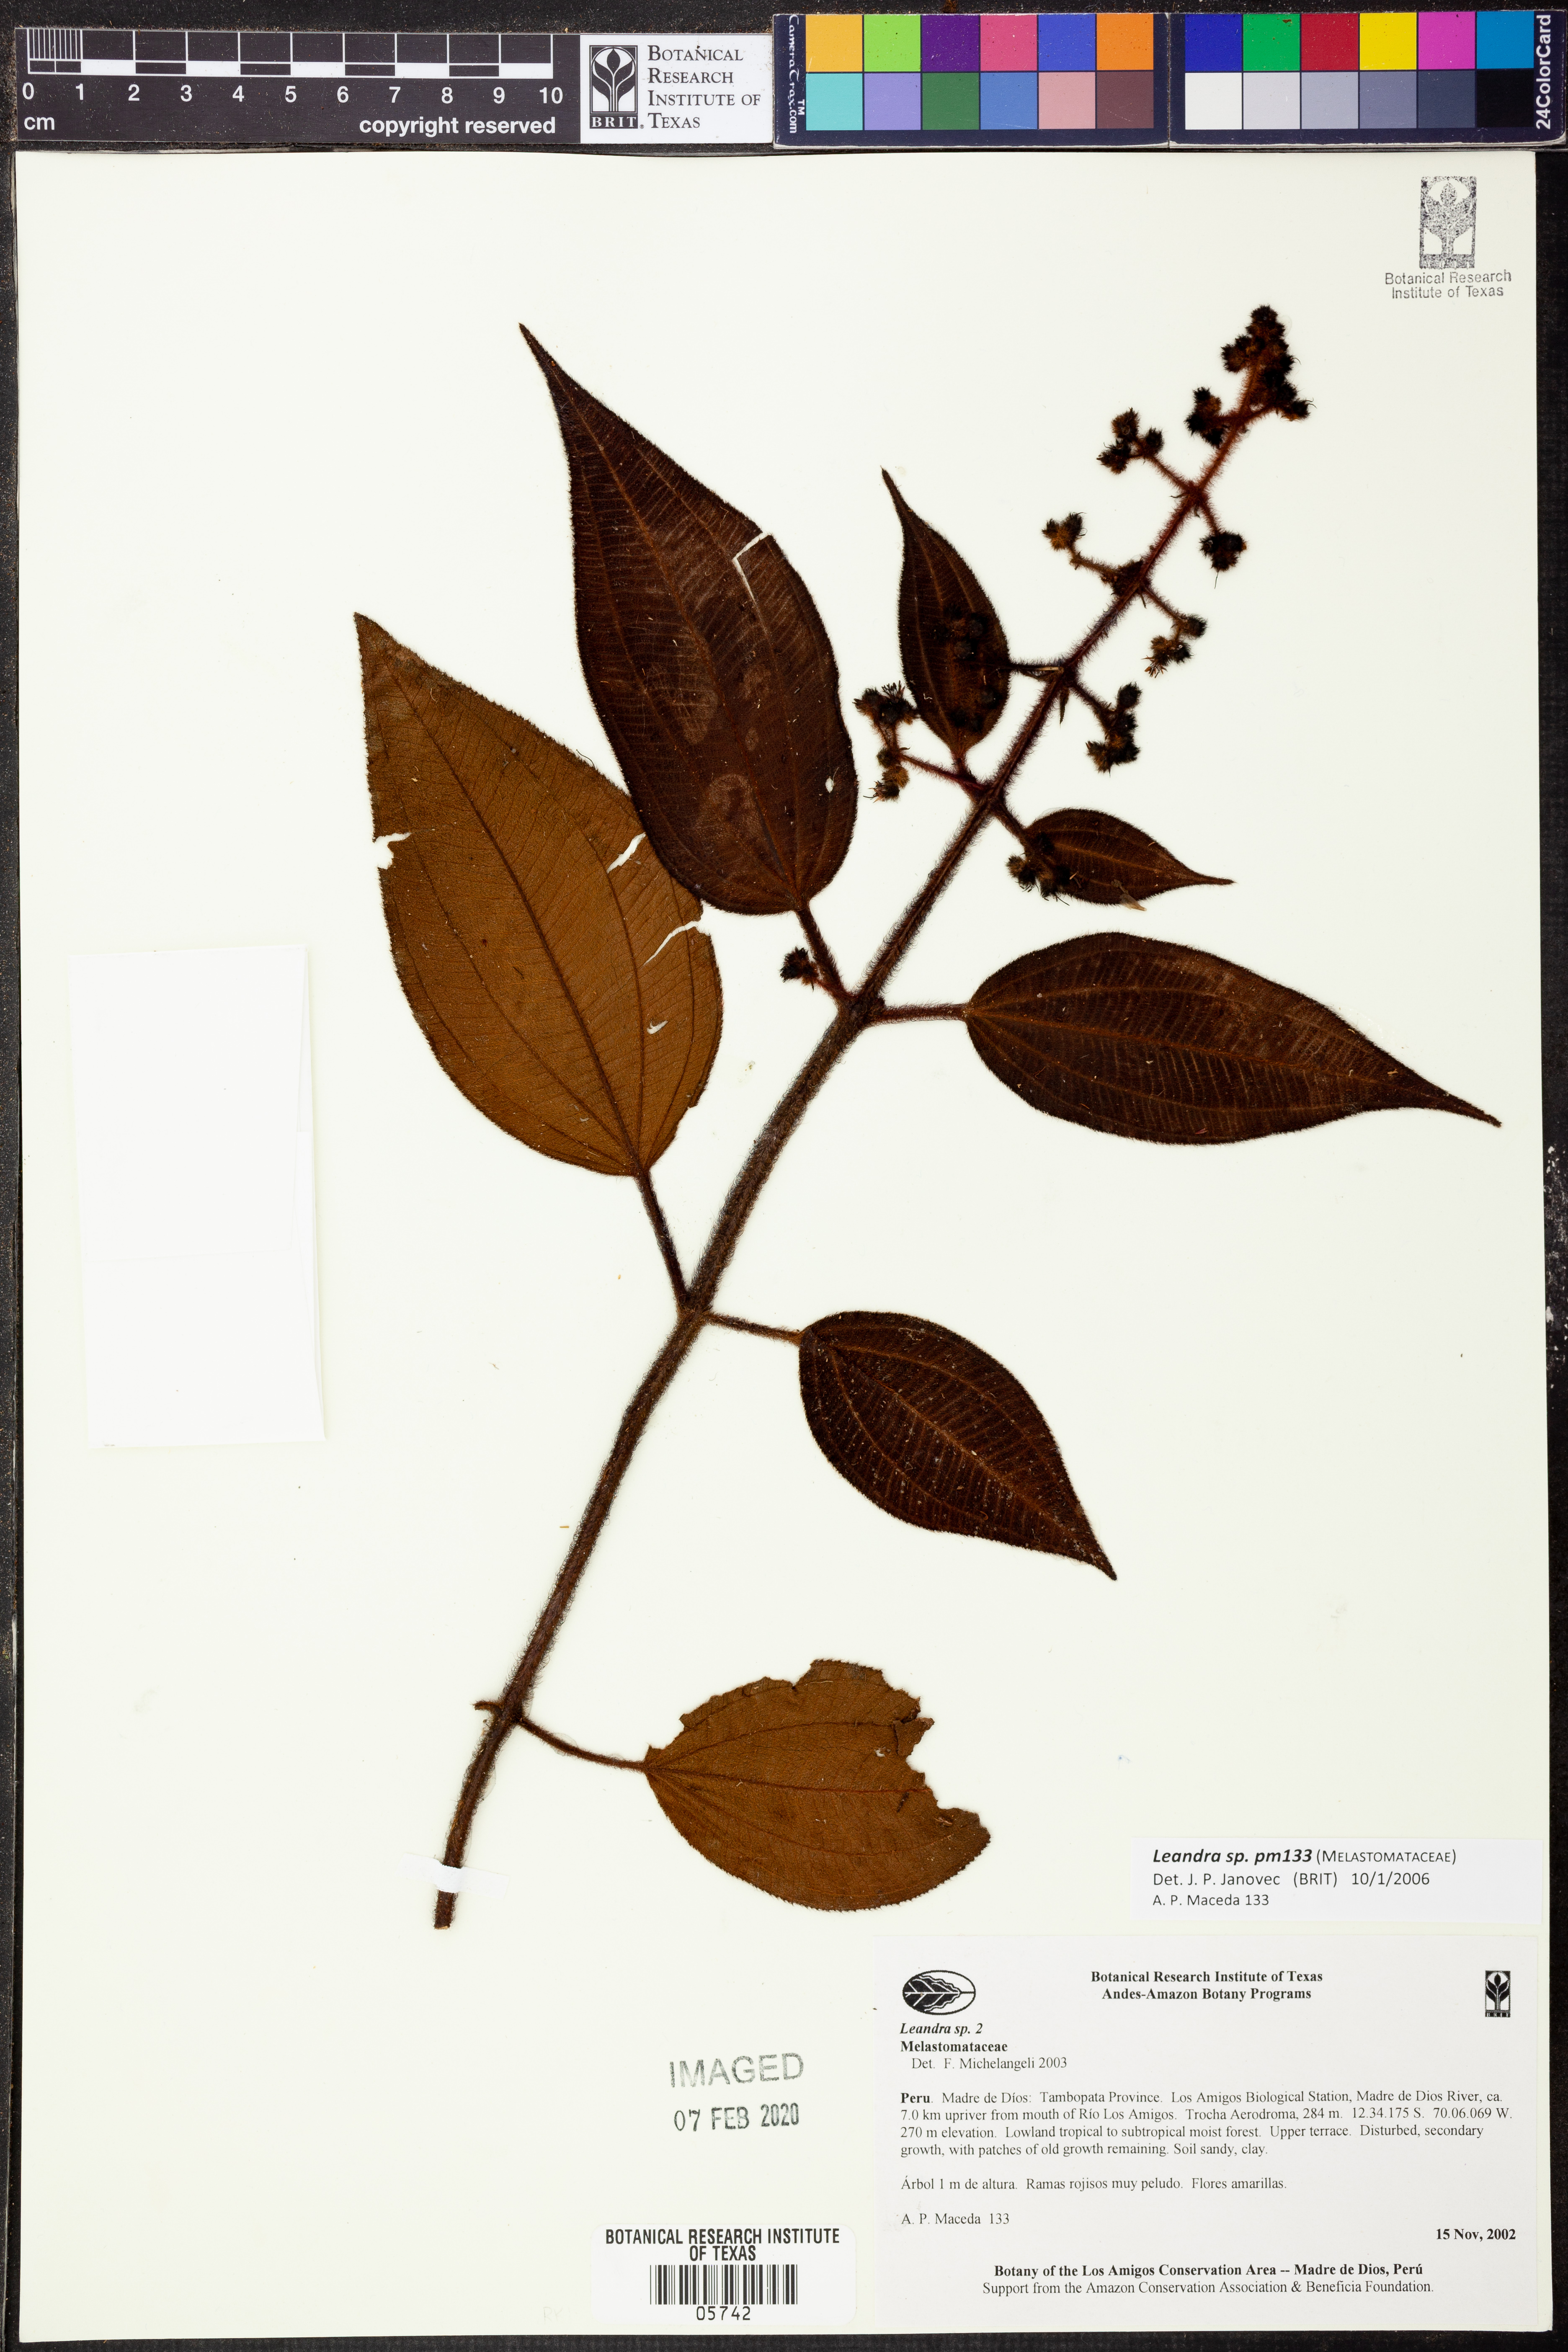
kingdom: Plantae
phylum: Tracheophyta
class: Magnoliopsida
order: Myrtales
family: Melastomataceae
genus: Miconia
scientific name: Miconia
